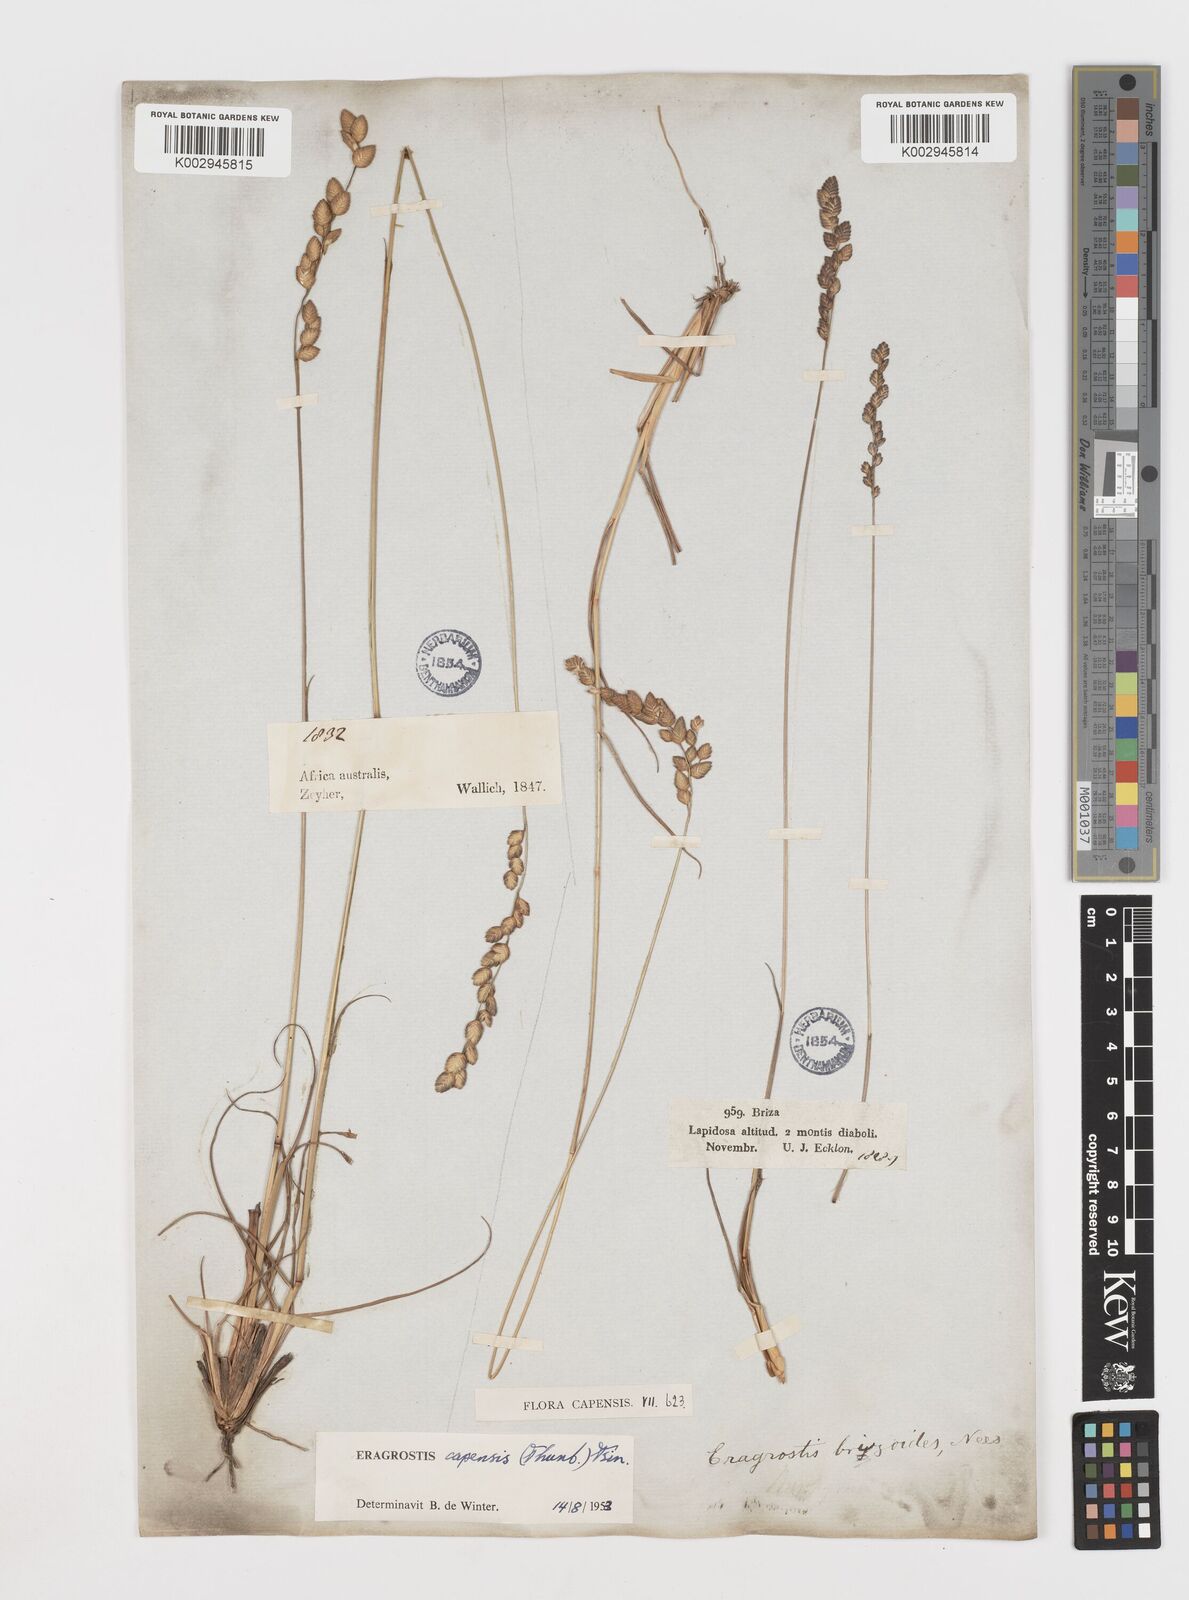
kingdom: Plantae
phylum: Tracheophyta
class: Liliopsida
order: Poales
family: Poaceae
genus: Eragrostis
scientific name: Eragrostis capensis
